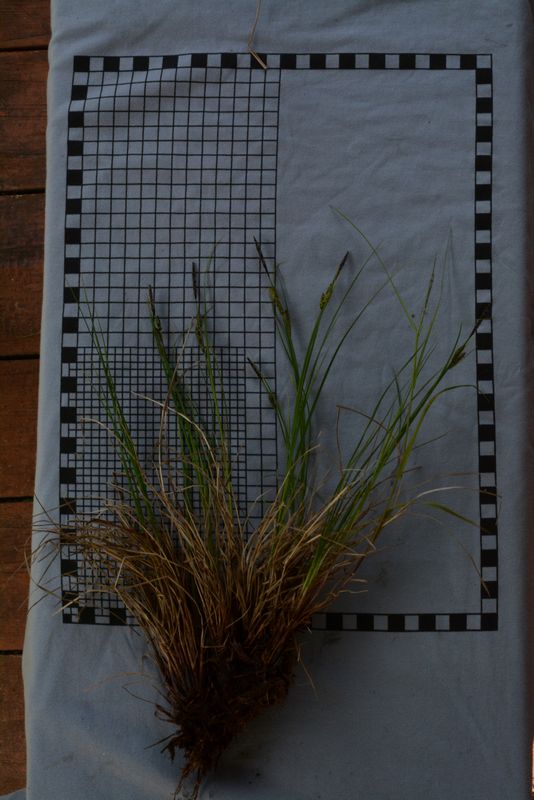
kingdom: Plantae
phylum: Tracheophyta
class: Liliopsida
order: Poales
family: Cyperaceae
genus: Carex
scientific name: Carex nigra
